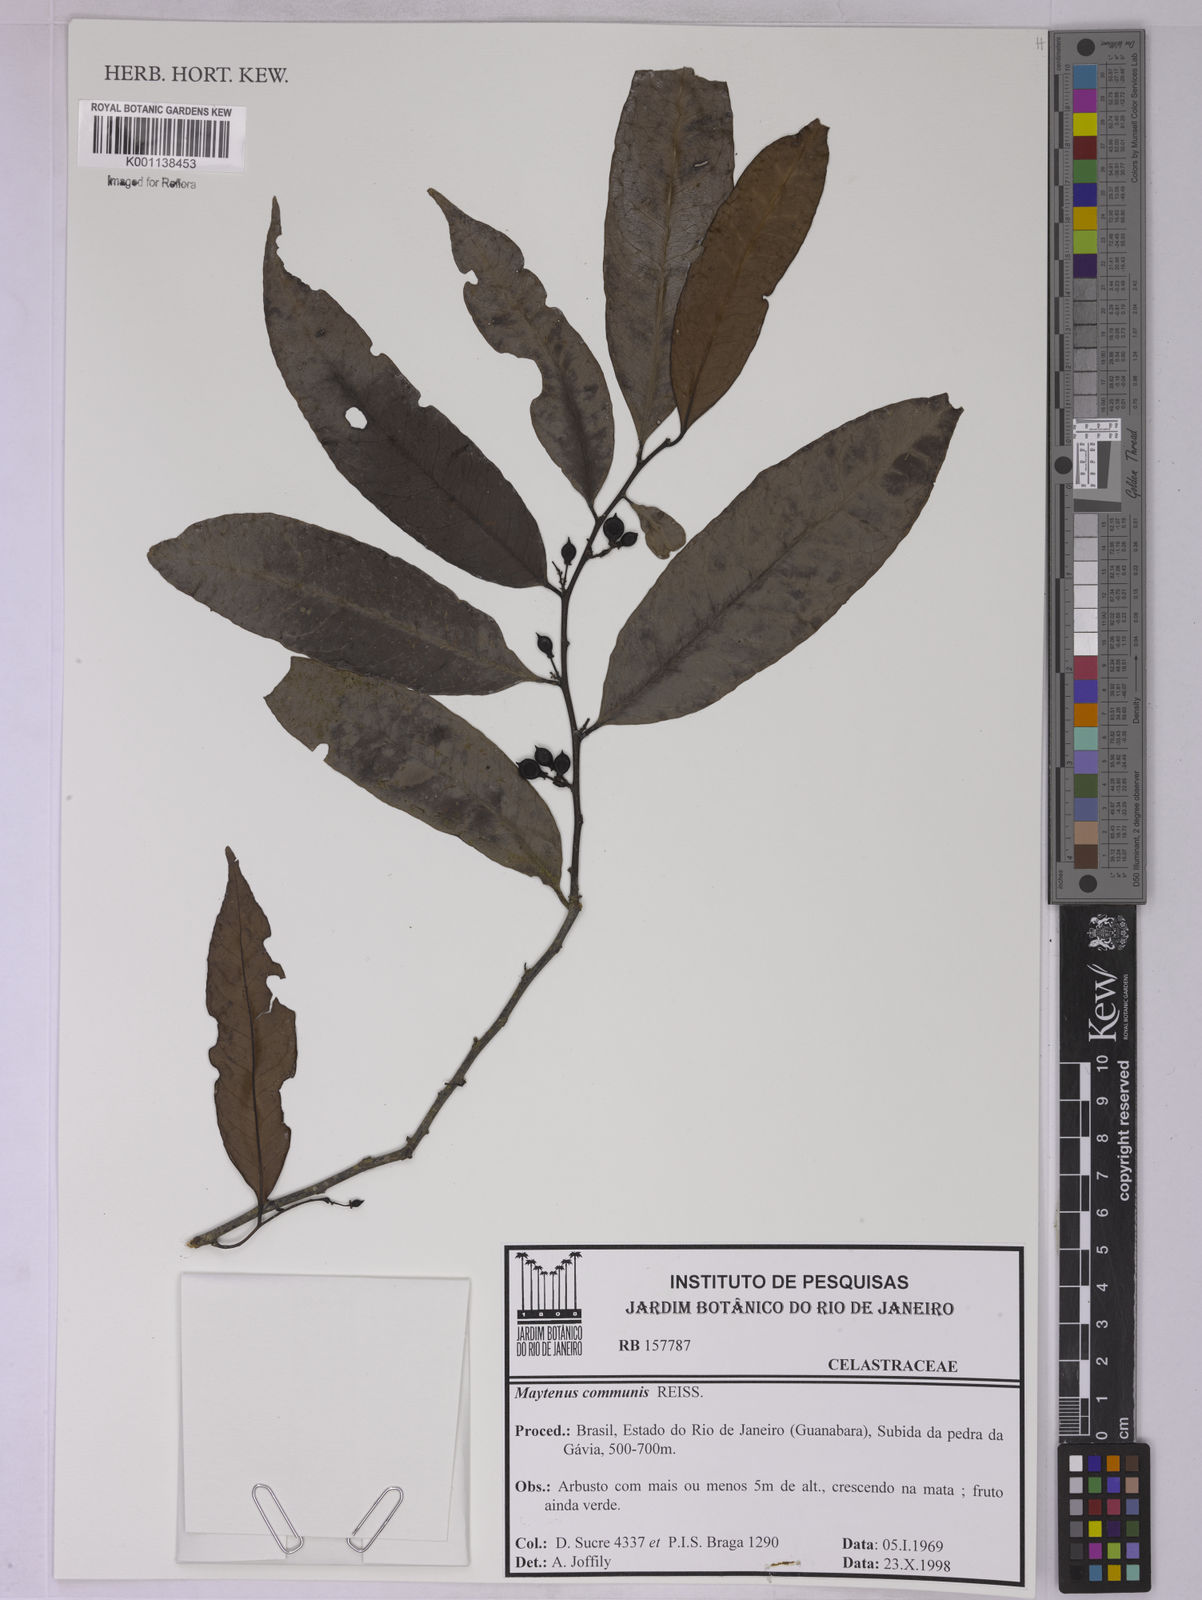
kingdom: Plantae
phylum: Tracheophyta
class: Magnoliopsida
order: Celastrales
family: Celastraceae
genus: Monteverdia
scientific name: Monteverdia communis
